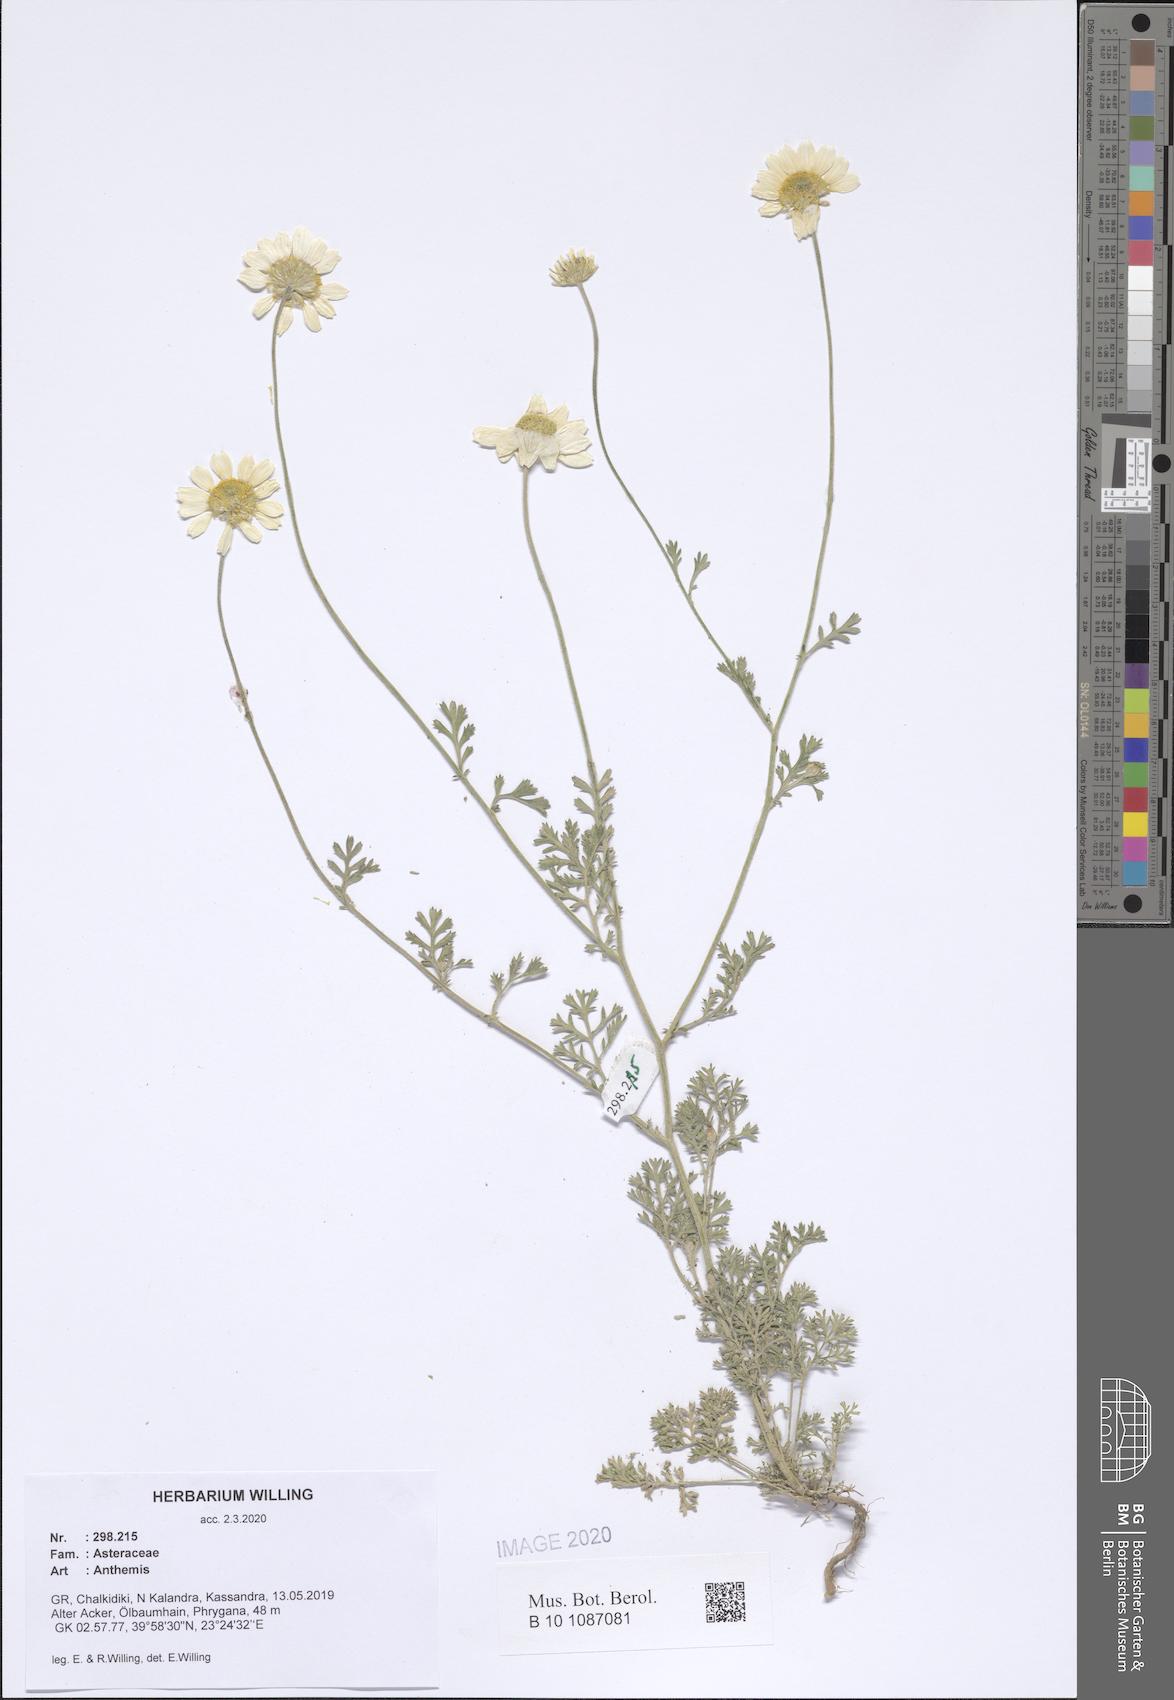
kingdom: Plantae
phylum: Tracheophyta
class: Magnoliopsida
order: Asterales
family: Asteraceae
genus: Anthemis
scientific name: Anthemis
